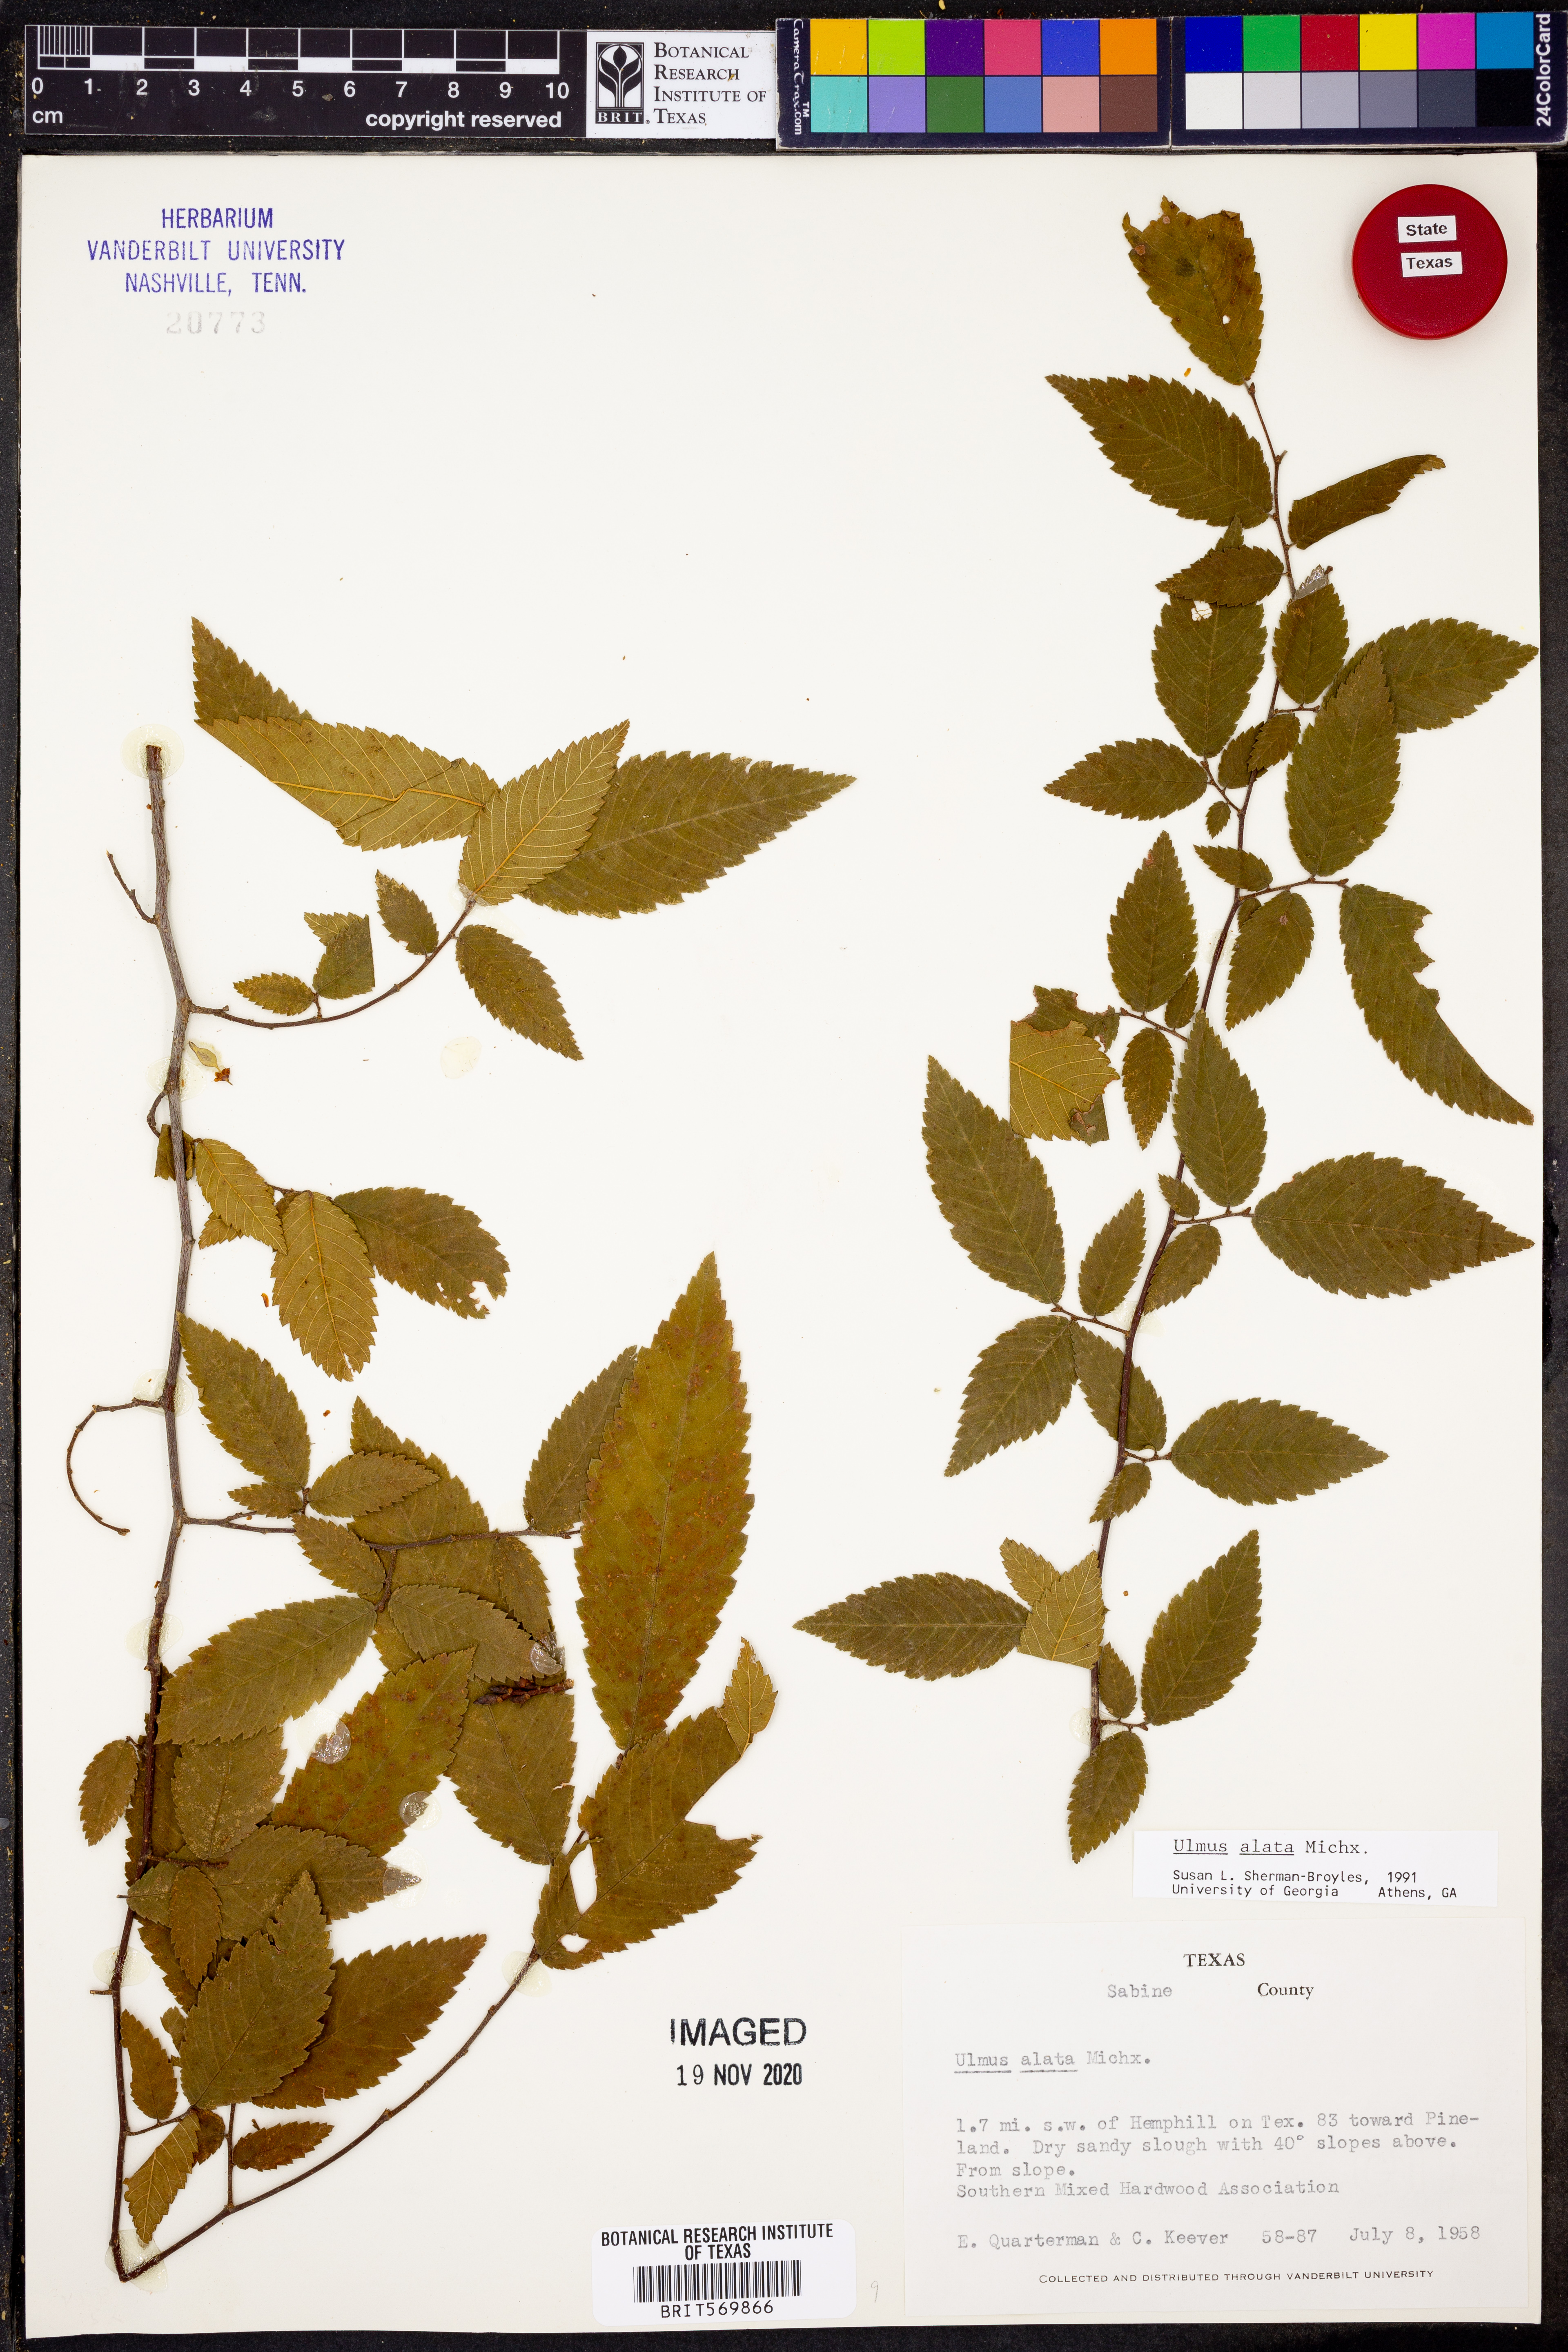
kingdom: Plantae
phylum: Tracheophyta
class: Magnoliopsida
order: Rosales
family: Ulmaceae
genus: Ulmus
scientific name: Ulmus alata
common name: Winged elm
